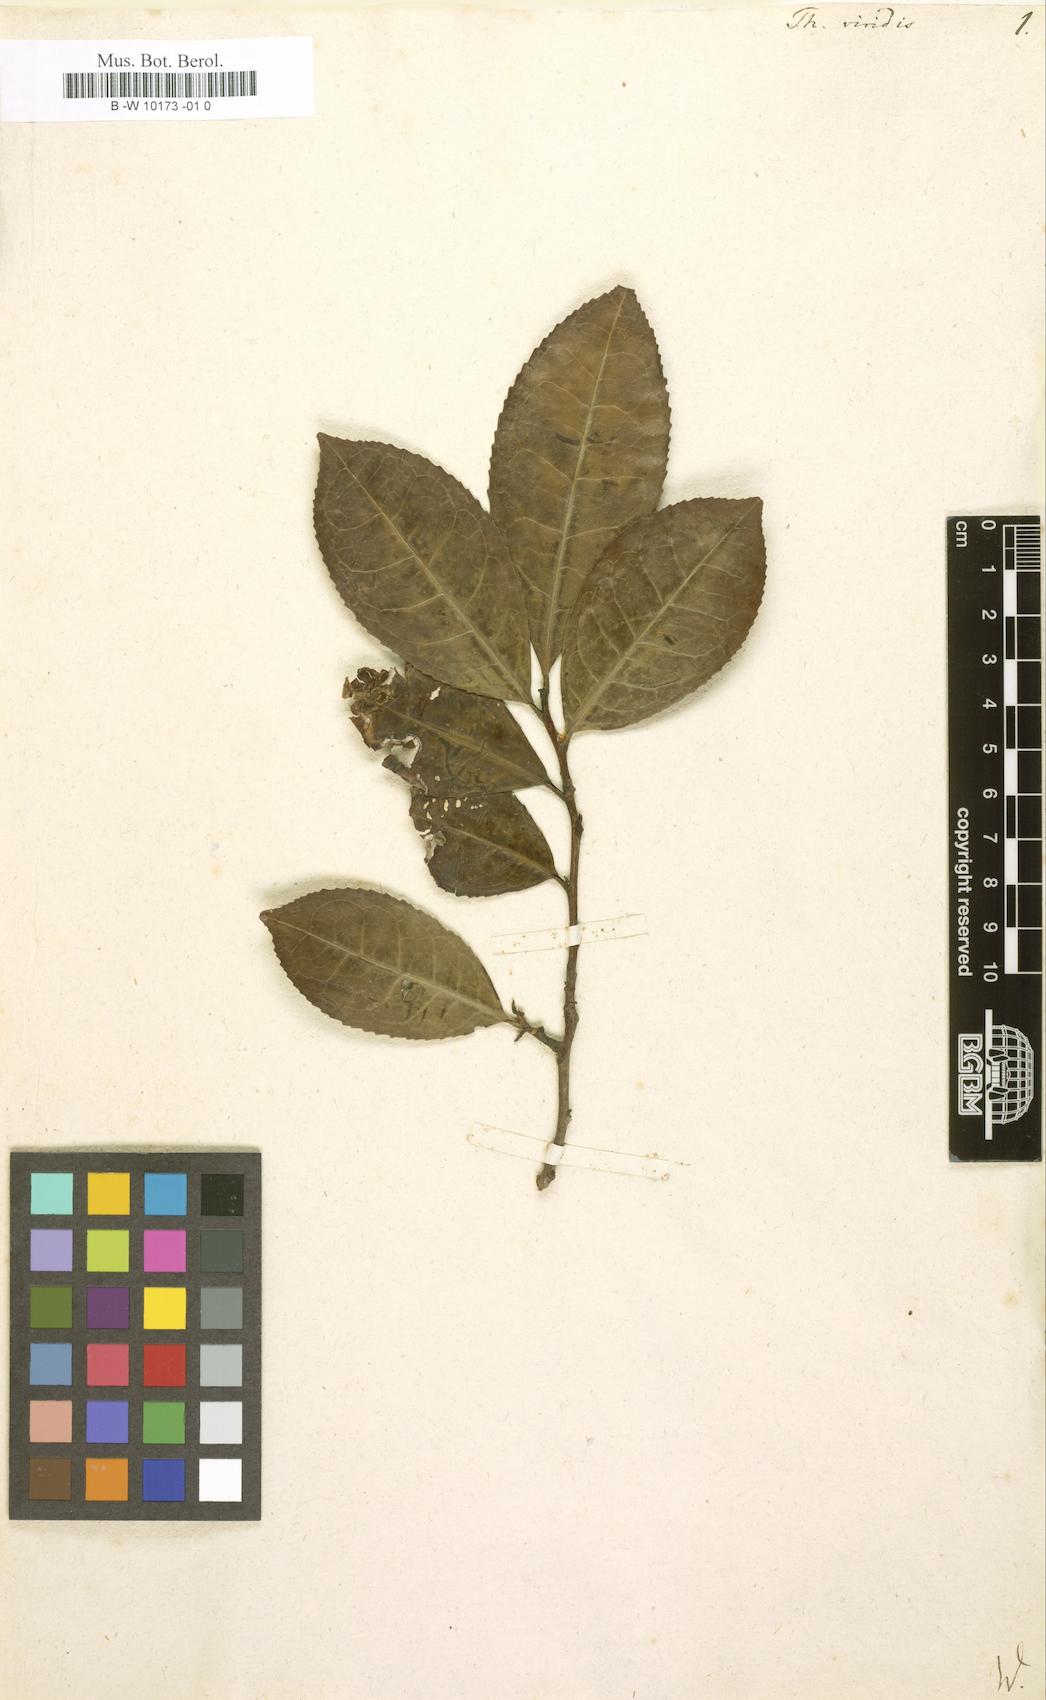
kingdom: Plantae
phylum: Tracheophyta
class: Magnoliopsida
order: Ericales
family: Theaceae
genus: Camellia
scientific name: Camellia sinensis
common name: Tea
